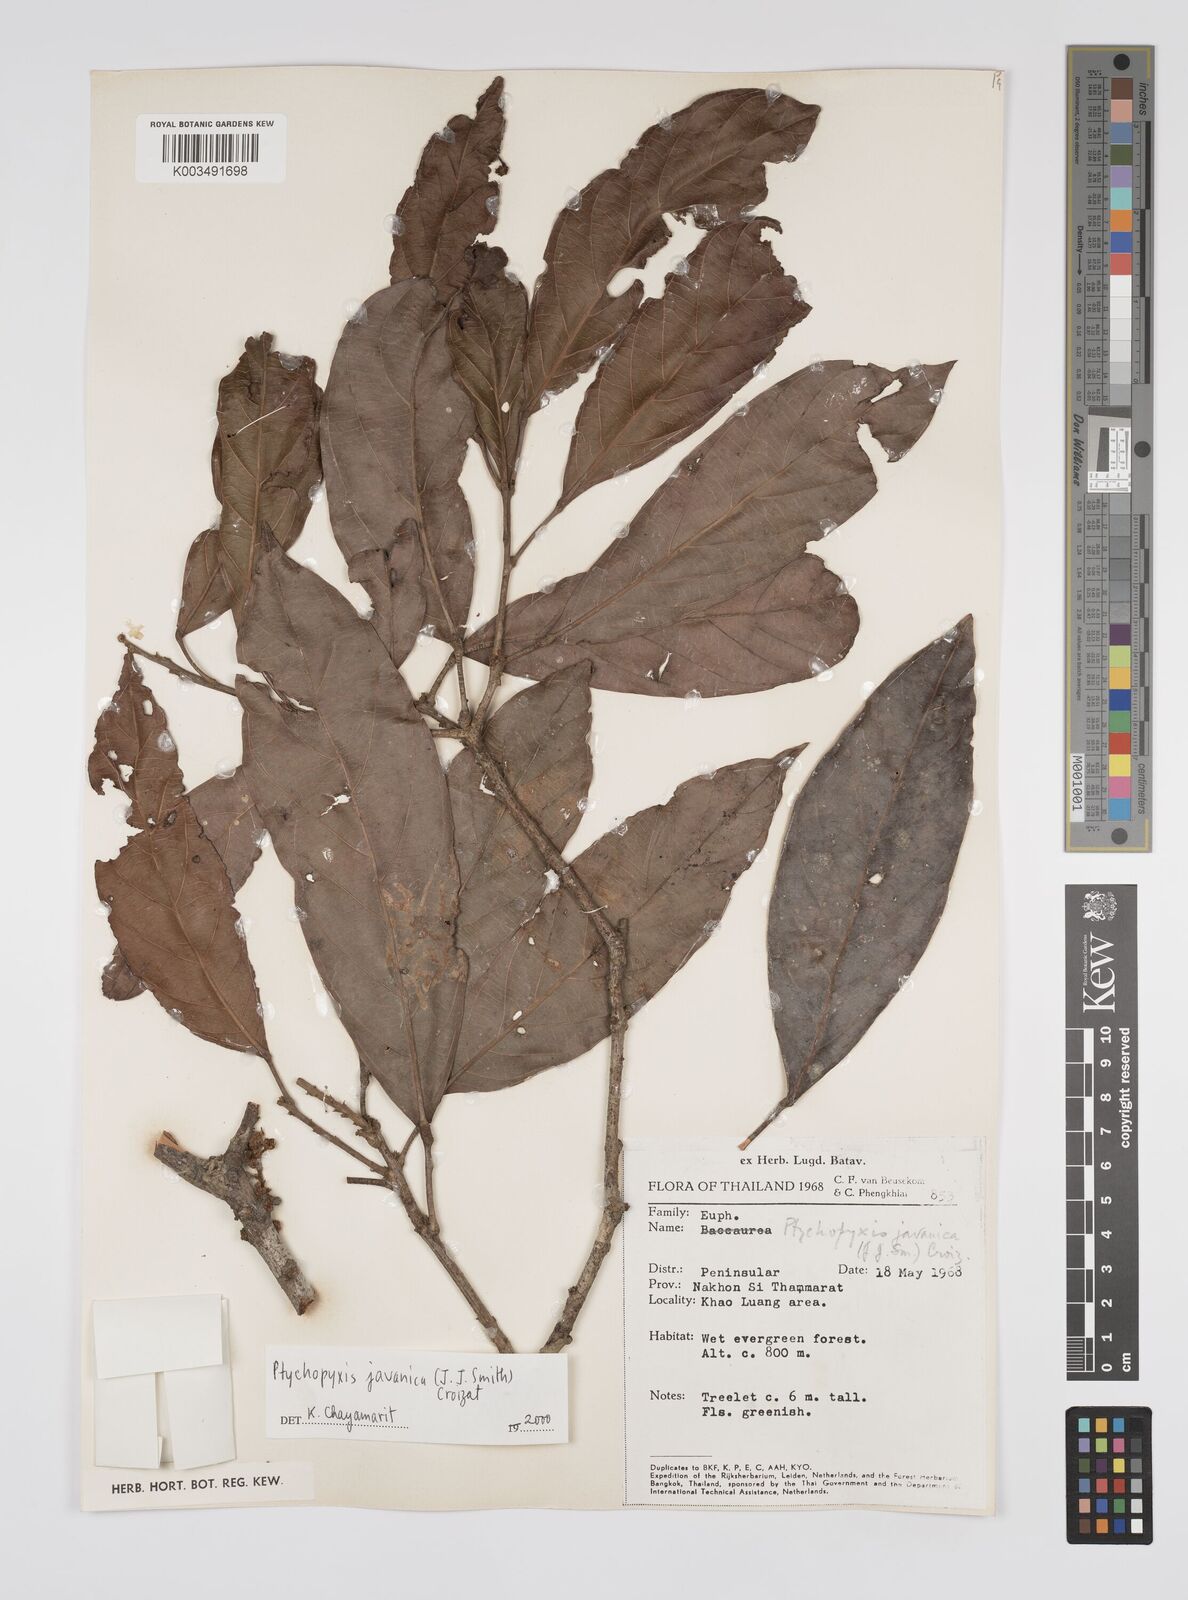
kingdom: Plantae
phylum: Tracheophyta
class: Magnoliopsida
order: Malpighiales
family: Euphorbiaceae
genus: Ptychopyxis
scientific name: Ptychopyxis javanica
